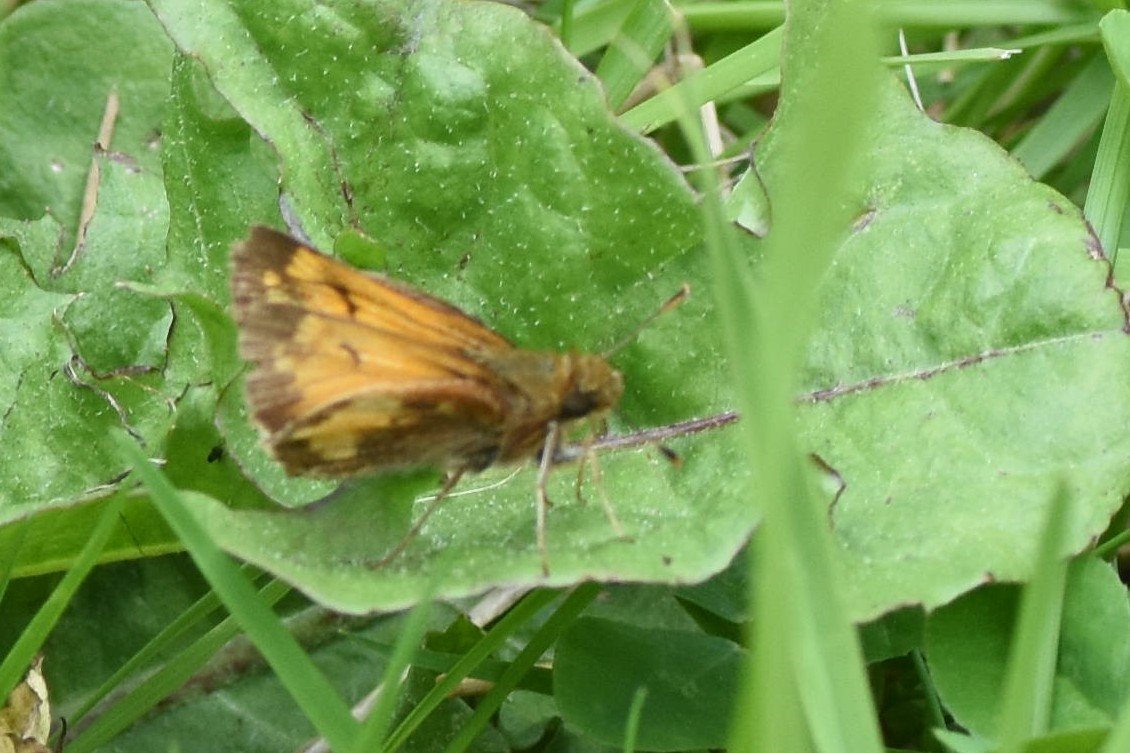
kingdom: Animalia
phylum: Arthropoda
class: Insecta
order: Lepidoptera
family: Hesperiidae
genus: Lon
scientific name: Lon hobomok
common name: Hobomok Skipper
